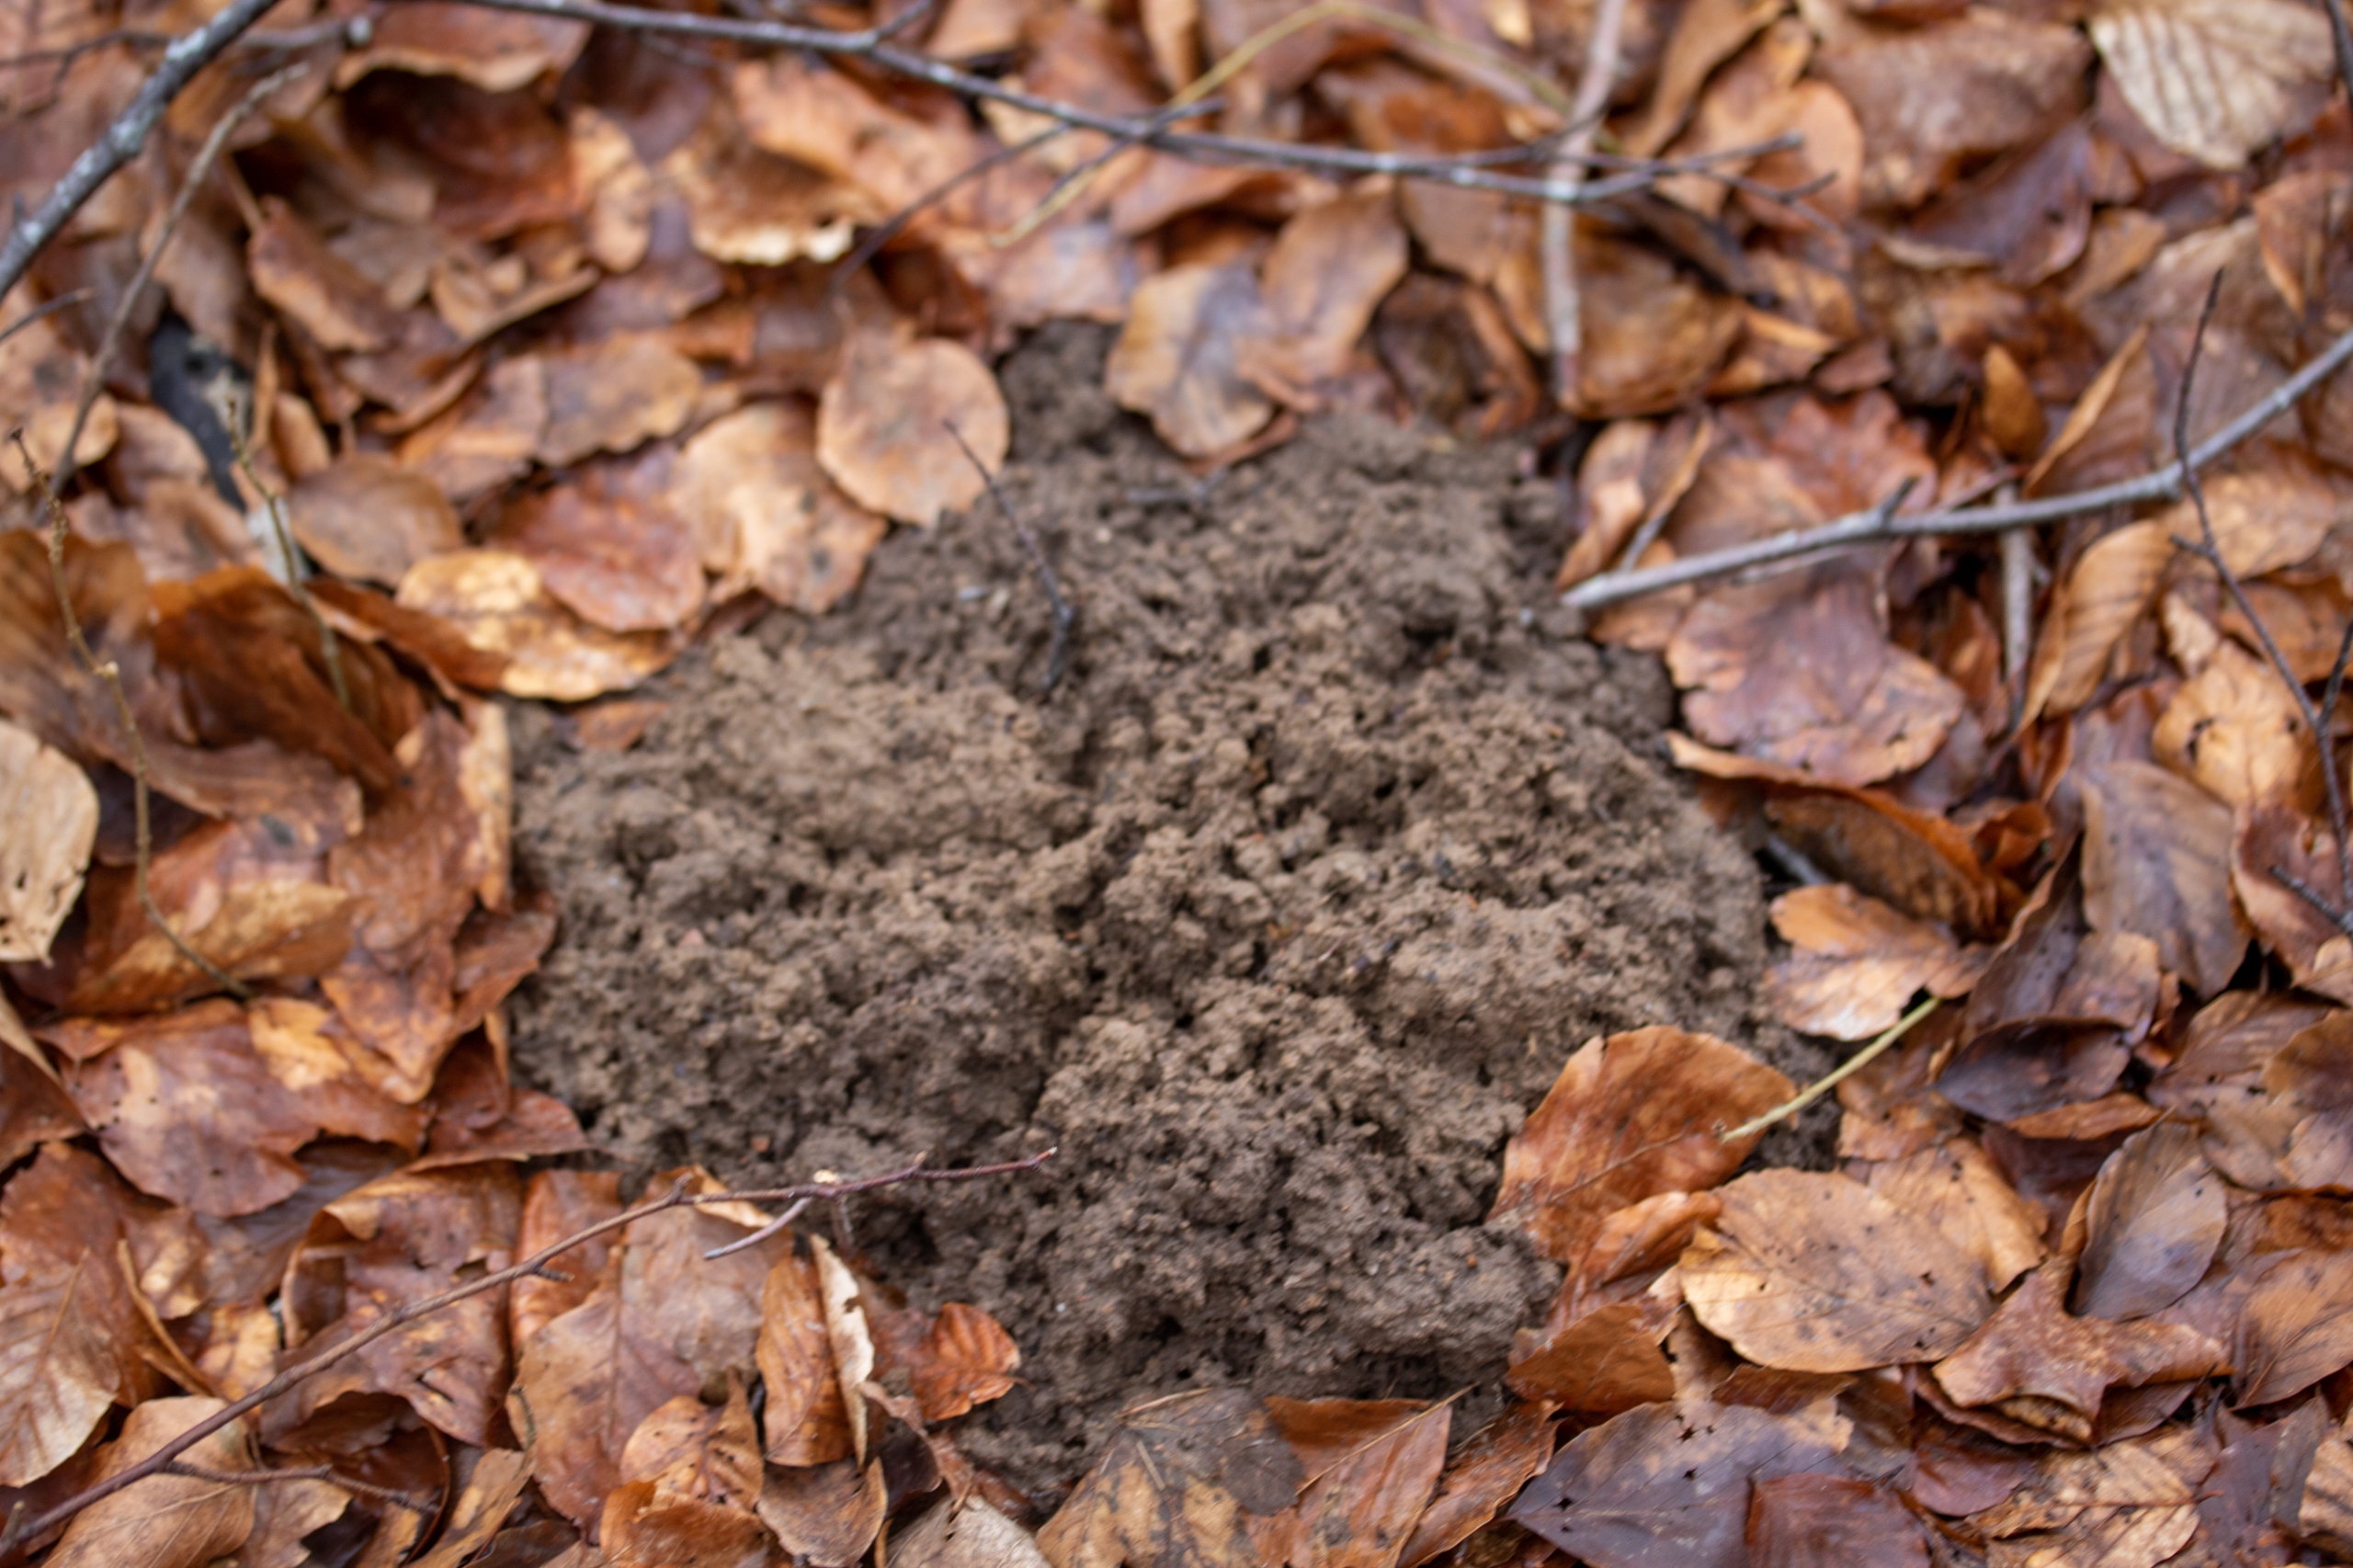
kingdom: Animalia
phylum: Chordata
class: Mammalia
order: Soricomorpha
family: Talpidae
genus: Talpa
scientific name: Talpa europaea
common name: Muldvarp
